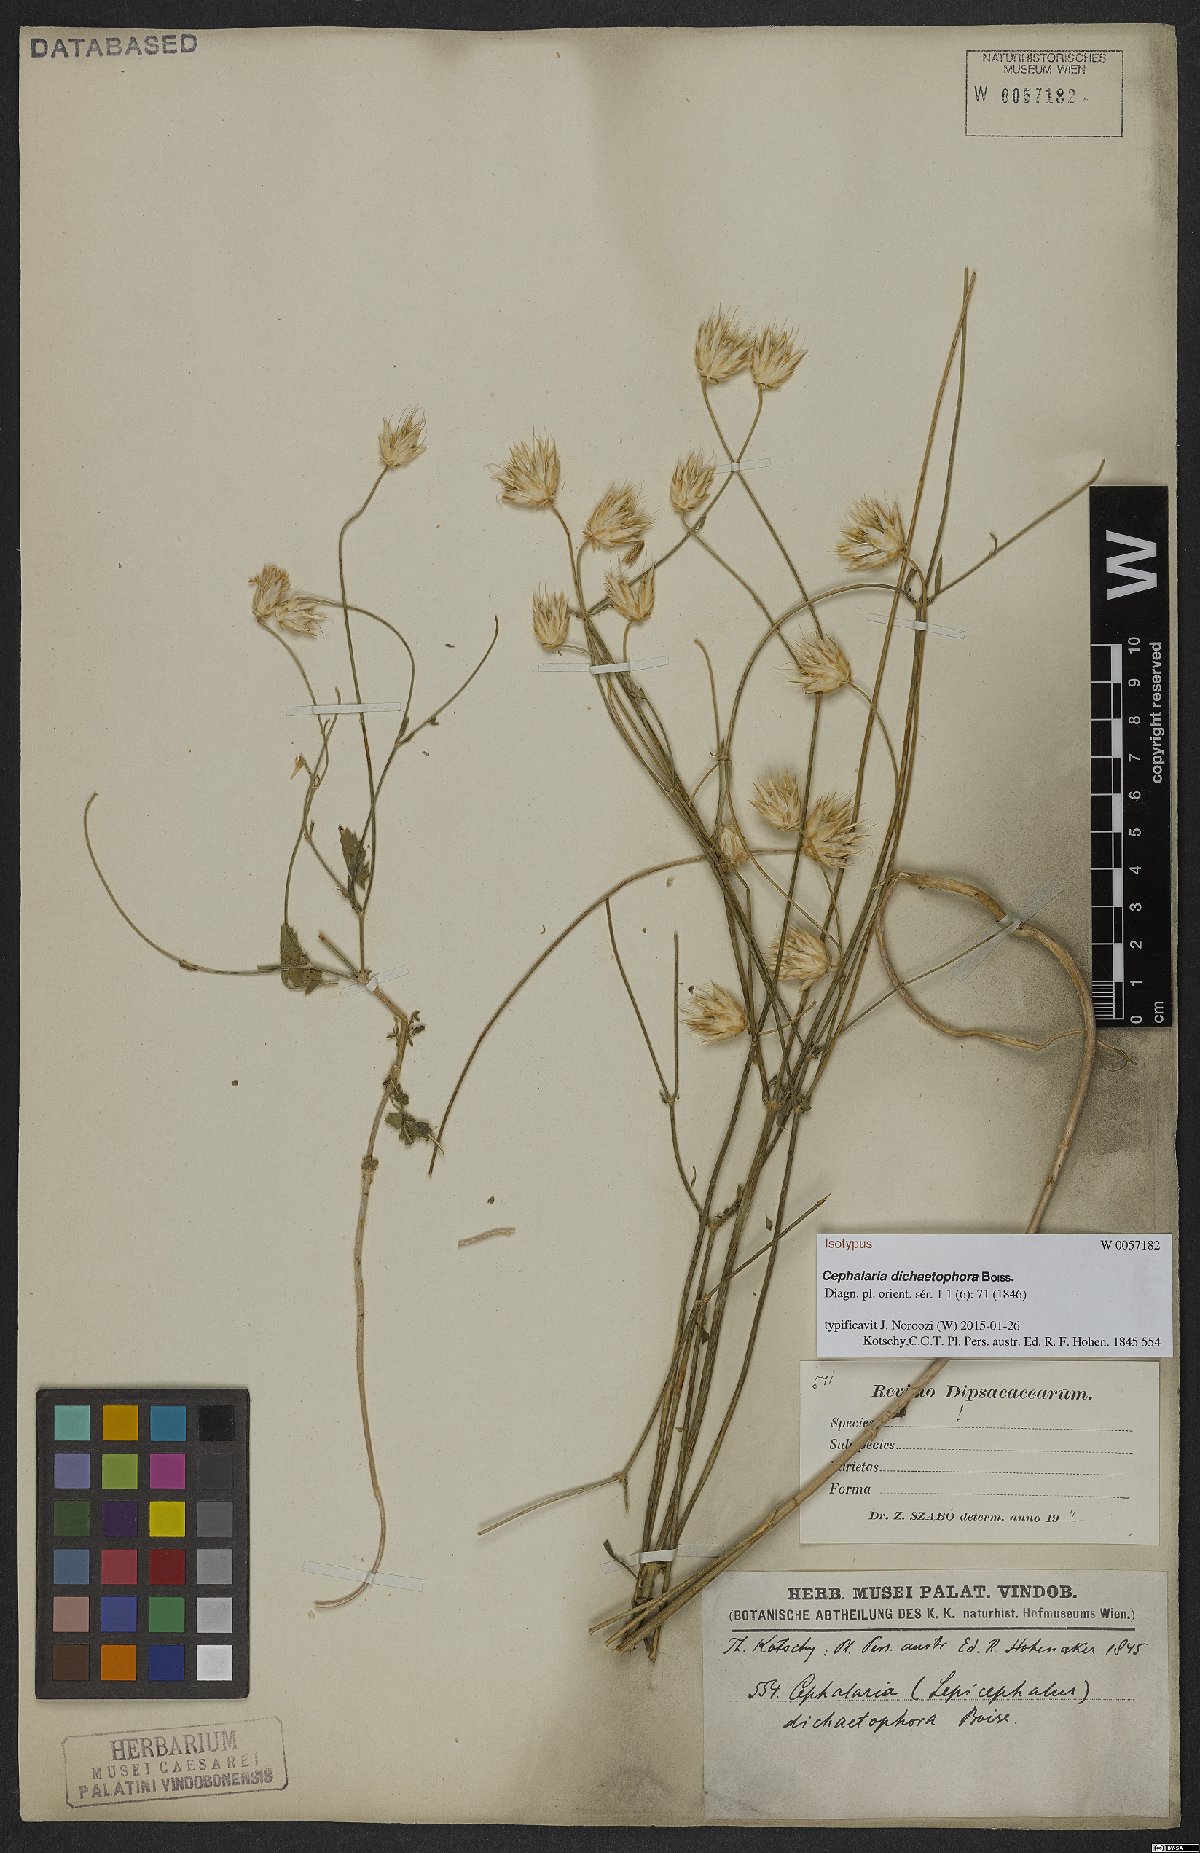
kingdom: Plantae
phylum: Tracheophyta
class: Magnoliopsida
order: Dipsacales
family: Caprifoliaceae
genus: Cephalaria
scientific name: Cephalaria dichaetophora
